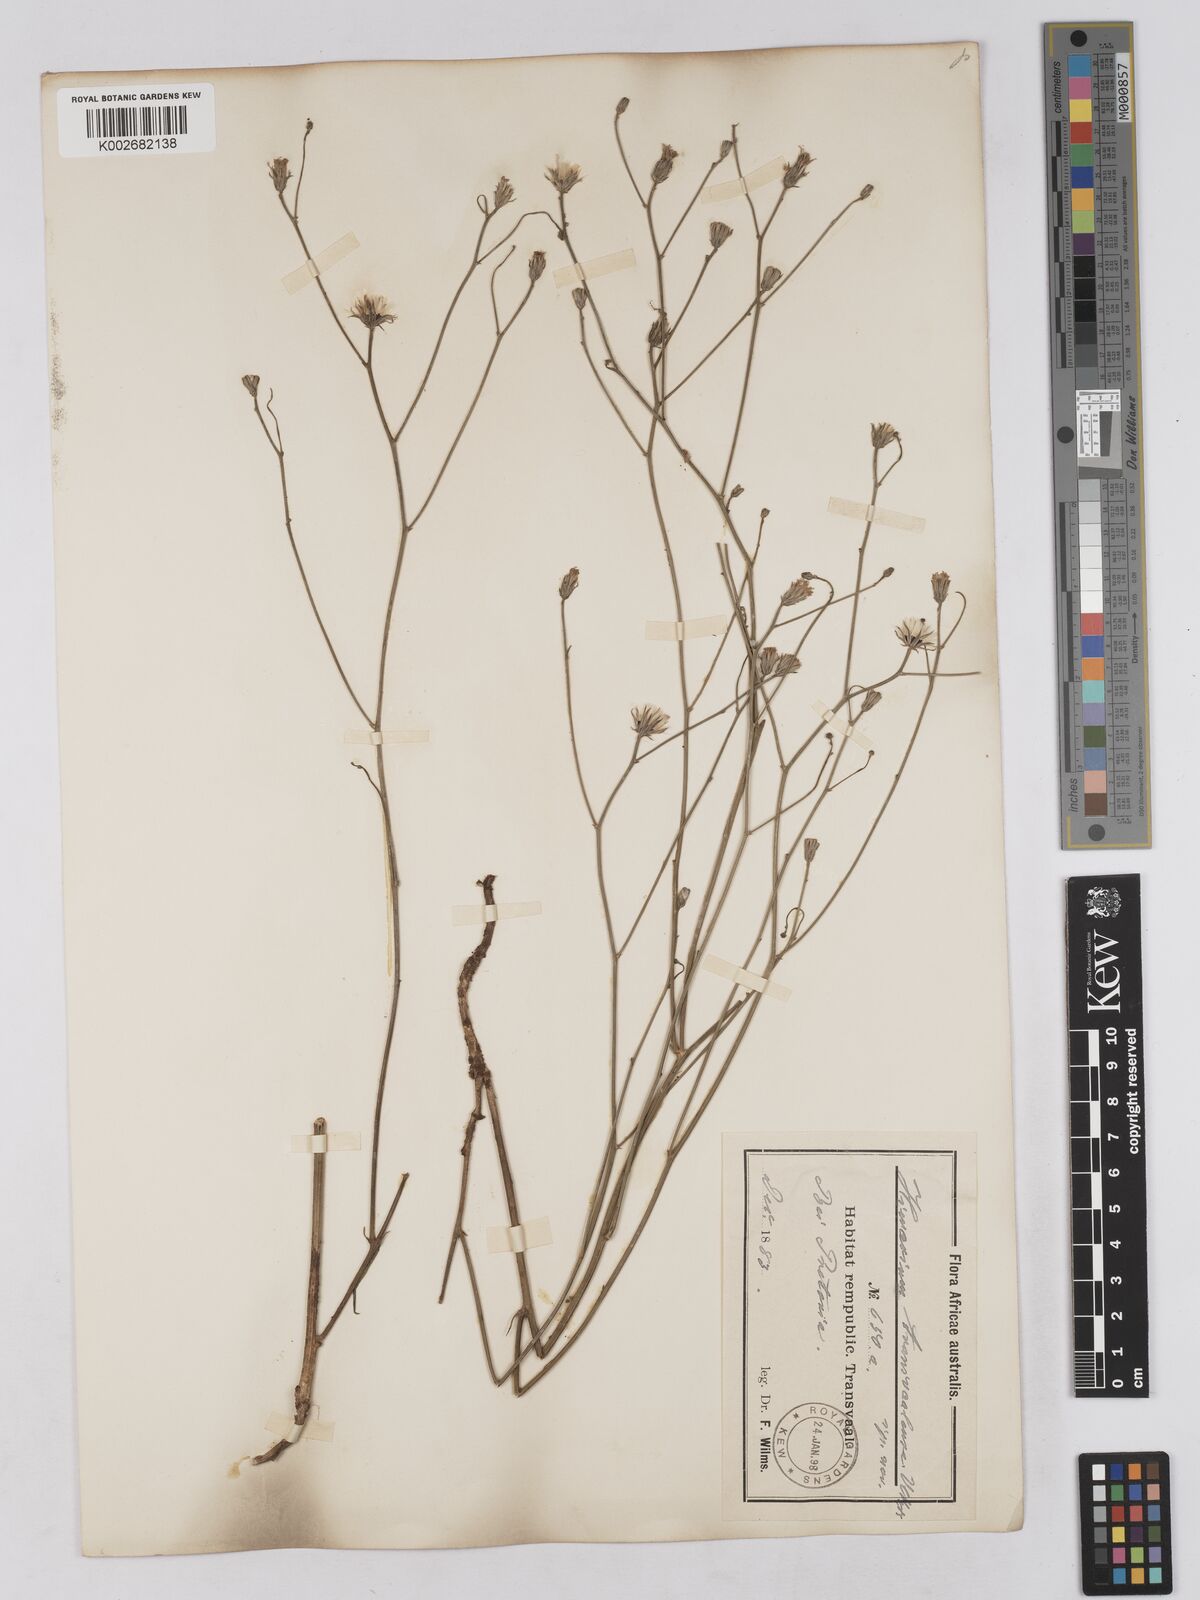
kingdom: Plantae
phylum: Tracheophyta
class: Magnoliopsida
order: Asterales
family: Asteraceae
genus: Tolpis
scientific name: Tolpis capensis
